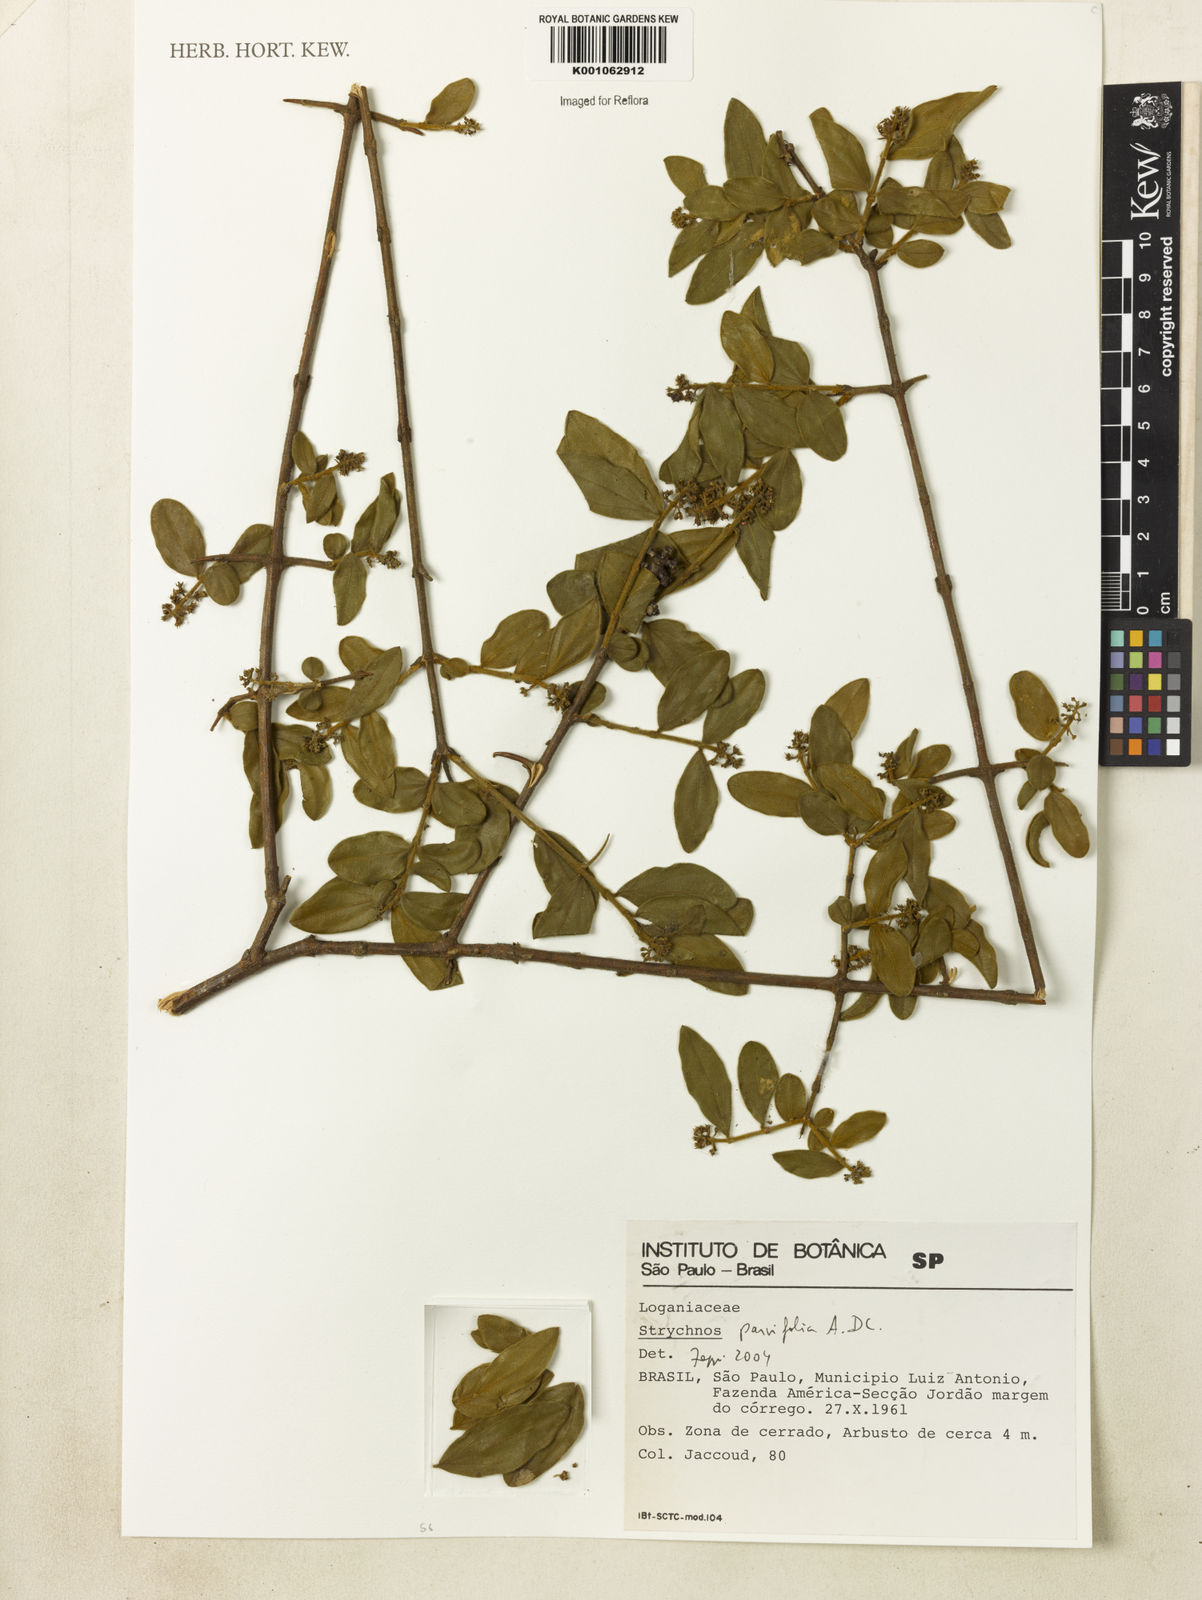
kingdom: Plantae
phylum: Tracheophyta
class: Magnoliopsida
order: Gentianales
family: Loganiaceae
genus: Strychnos
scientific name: Strychnos parvifolia
